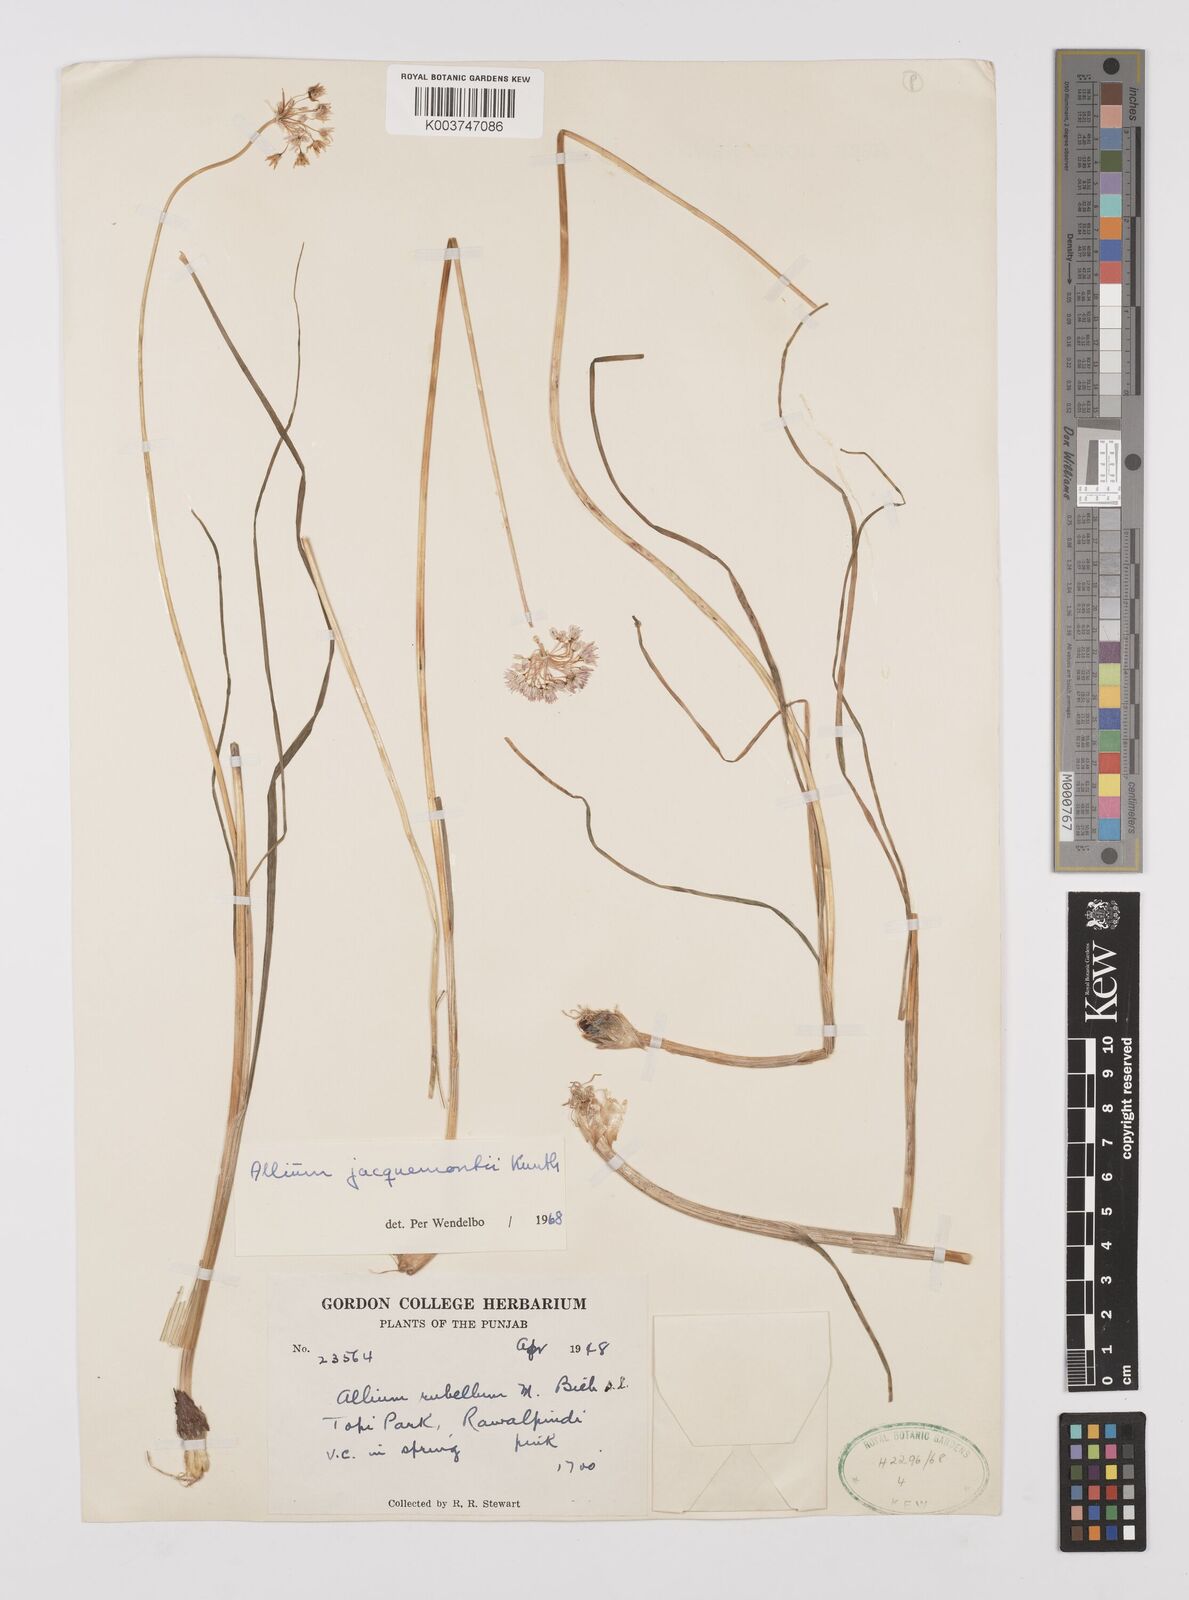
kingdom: Plantae
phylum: Tracheophyta
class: Liliopsida
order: Asparagales
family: Amaryllidaceae
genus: Allium
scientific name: Allium rubellum
